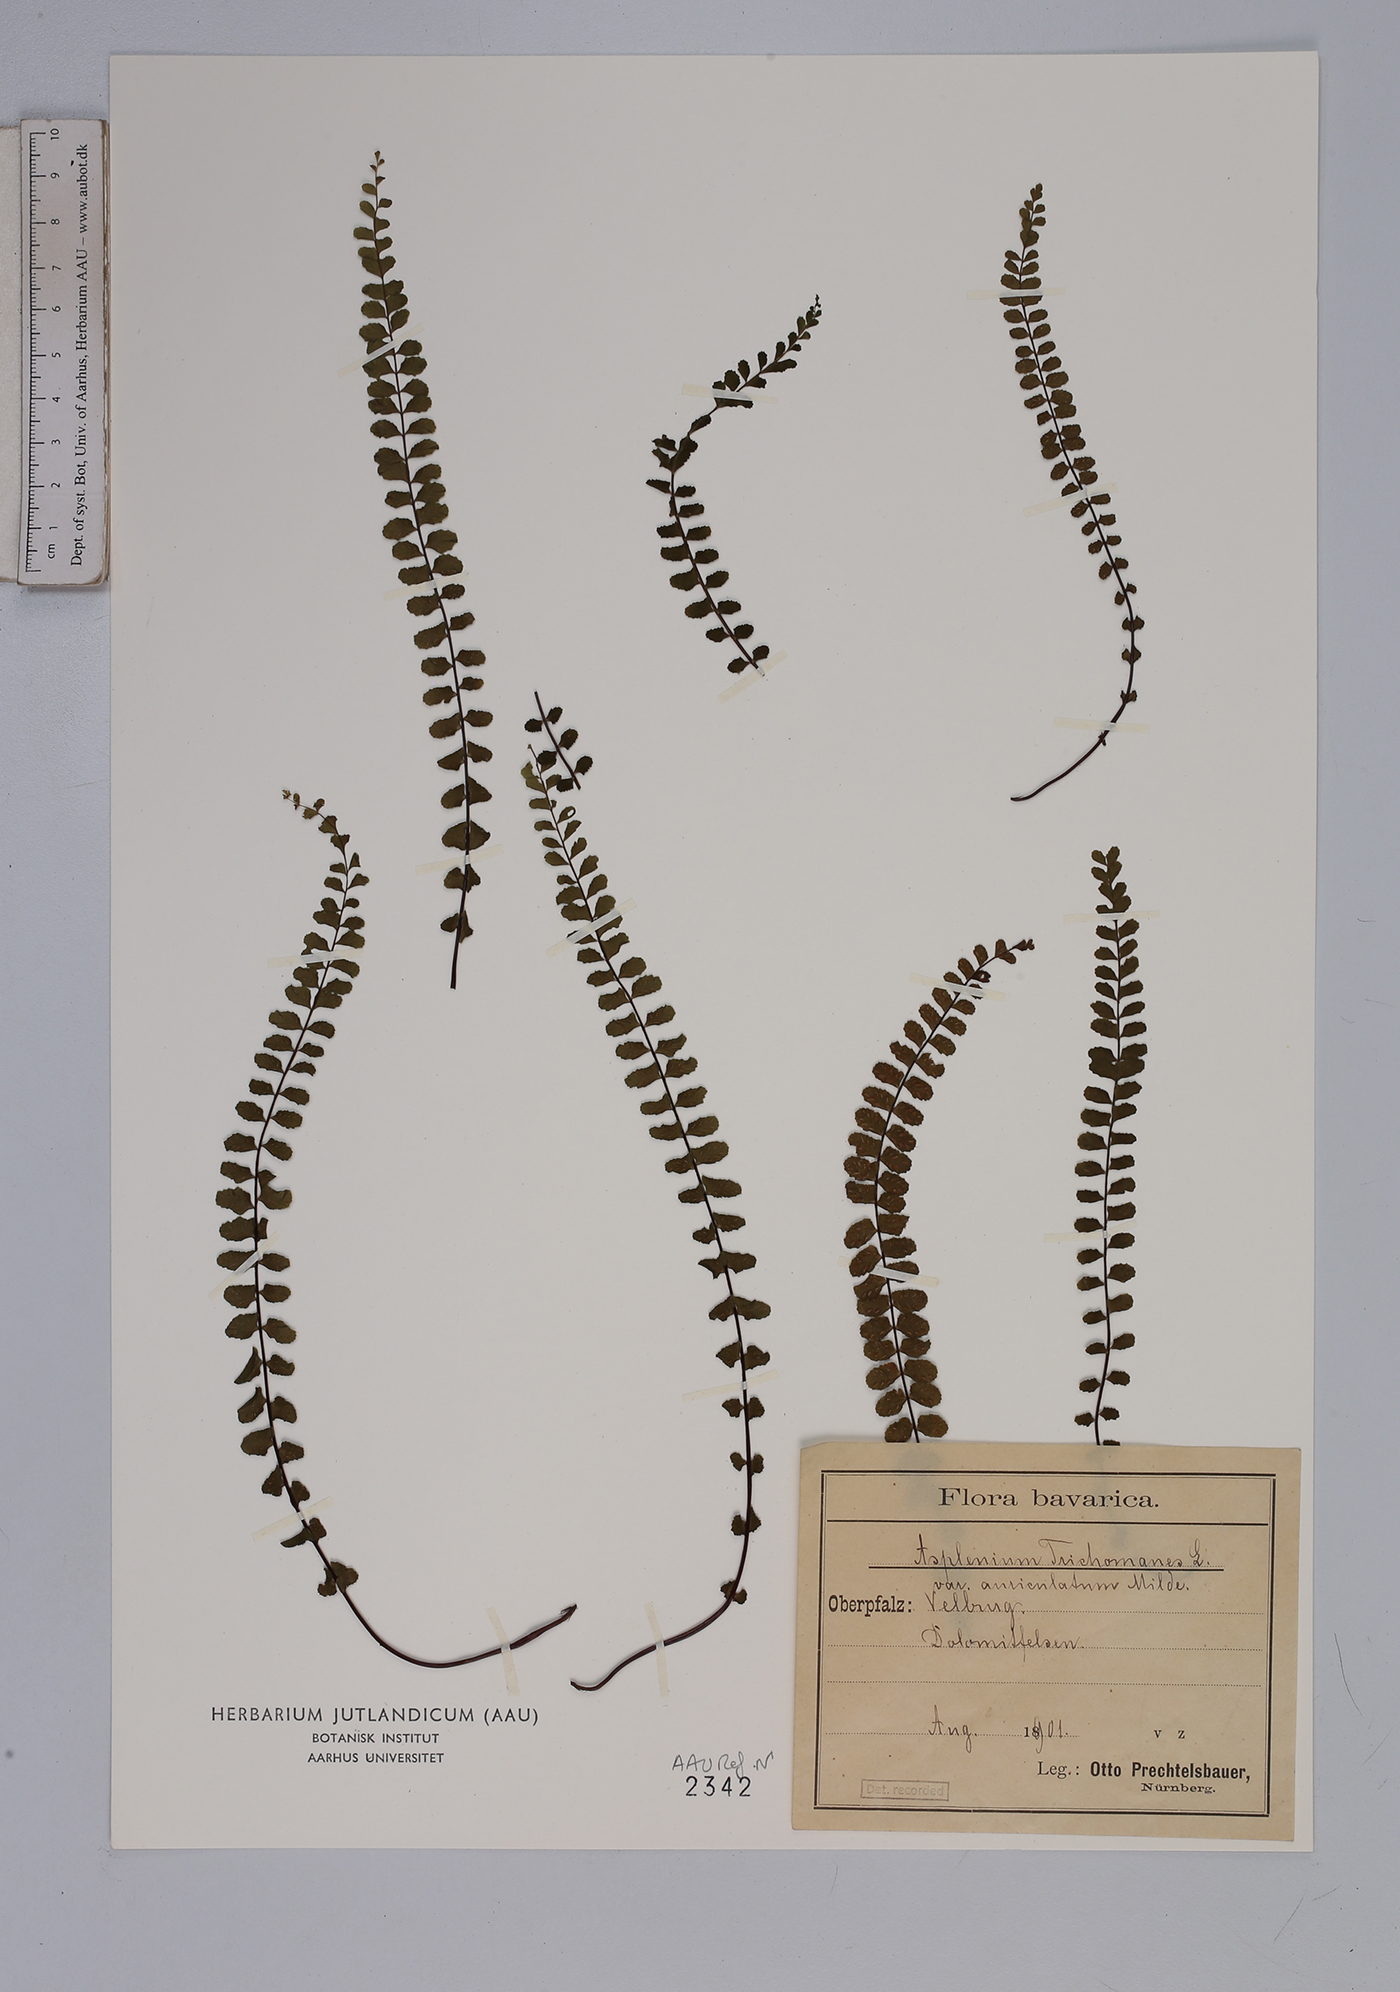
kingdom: Plantae
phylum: Tracheophyta
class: Polypodiopsida
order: Polypodiales
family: Aspleniaceae
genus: Asplenium
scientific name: Asplenium trichomanes
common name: Maidenhair spleenwort
